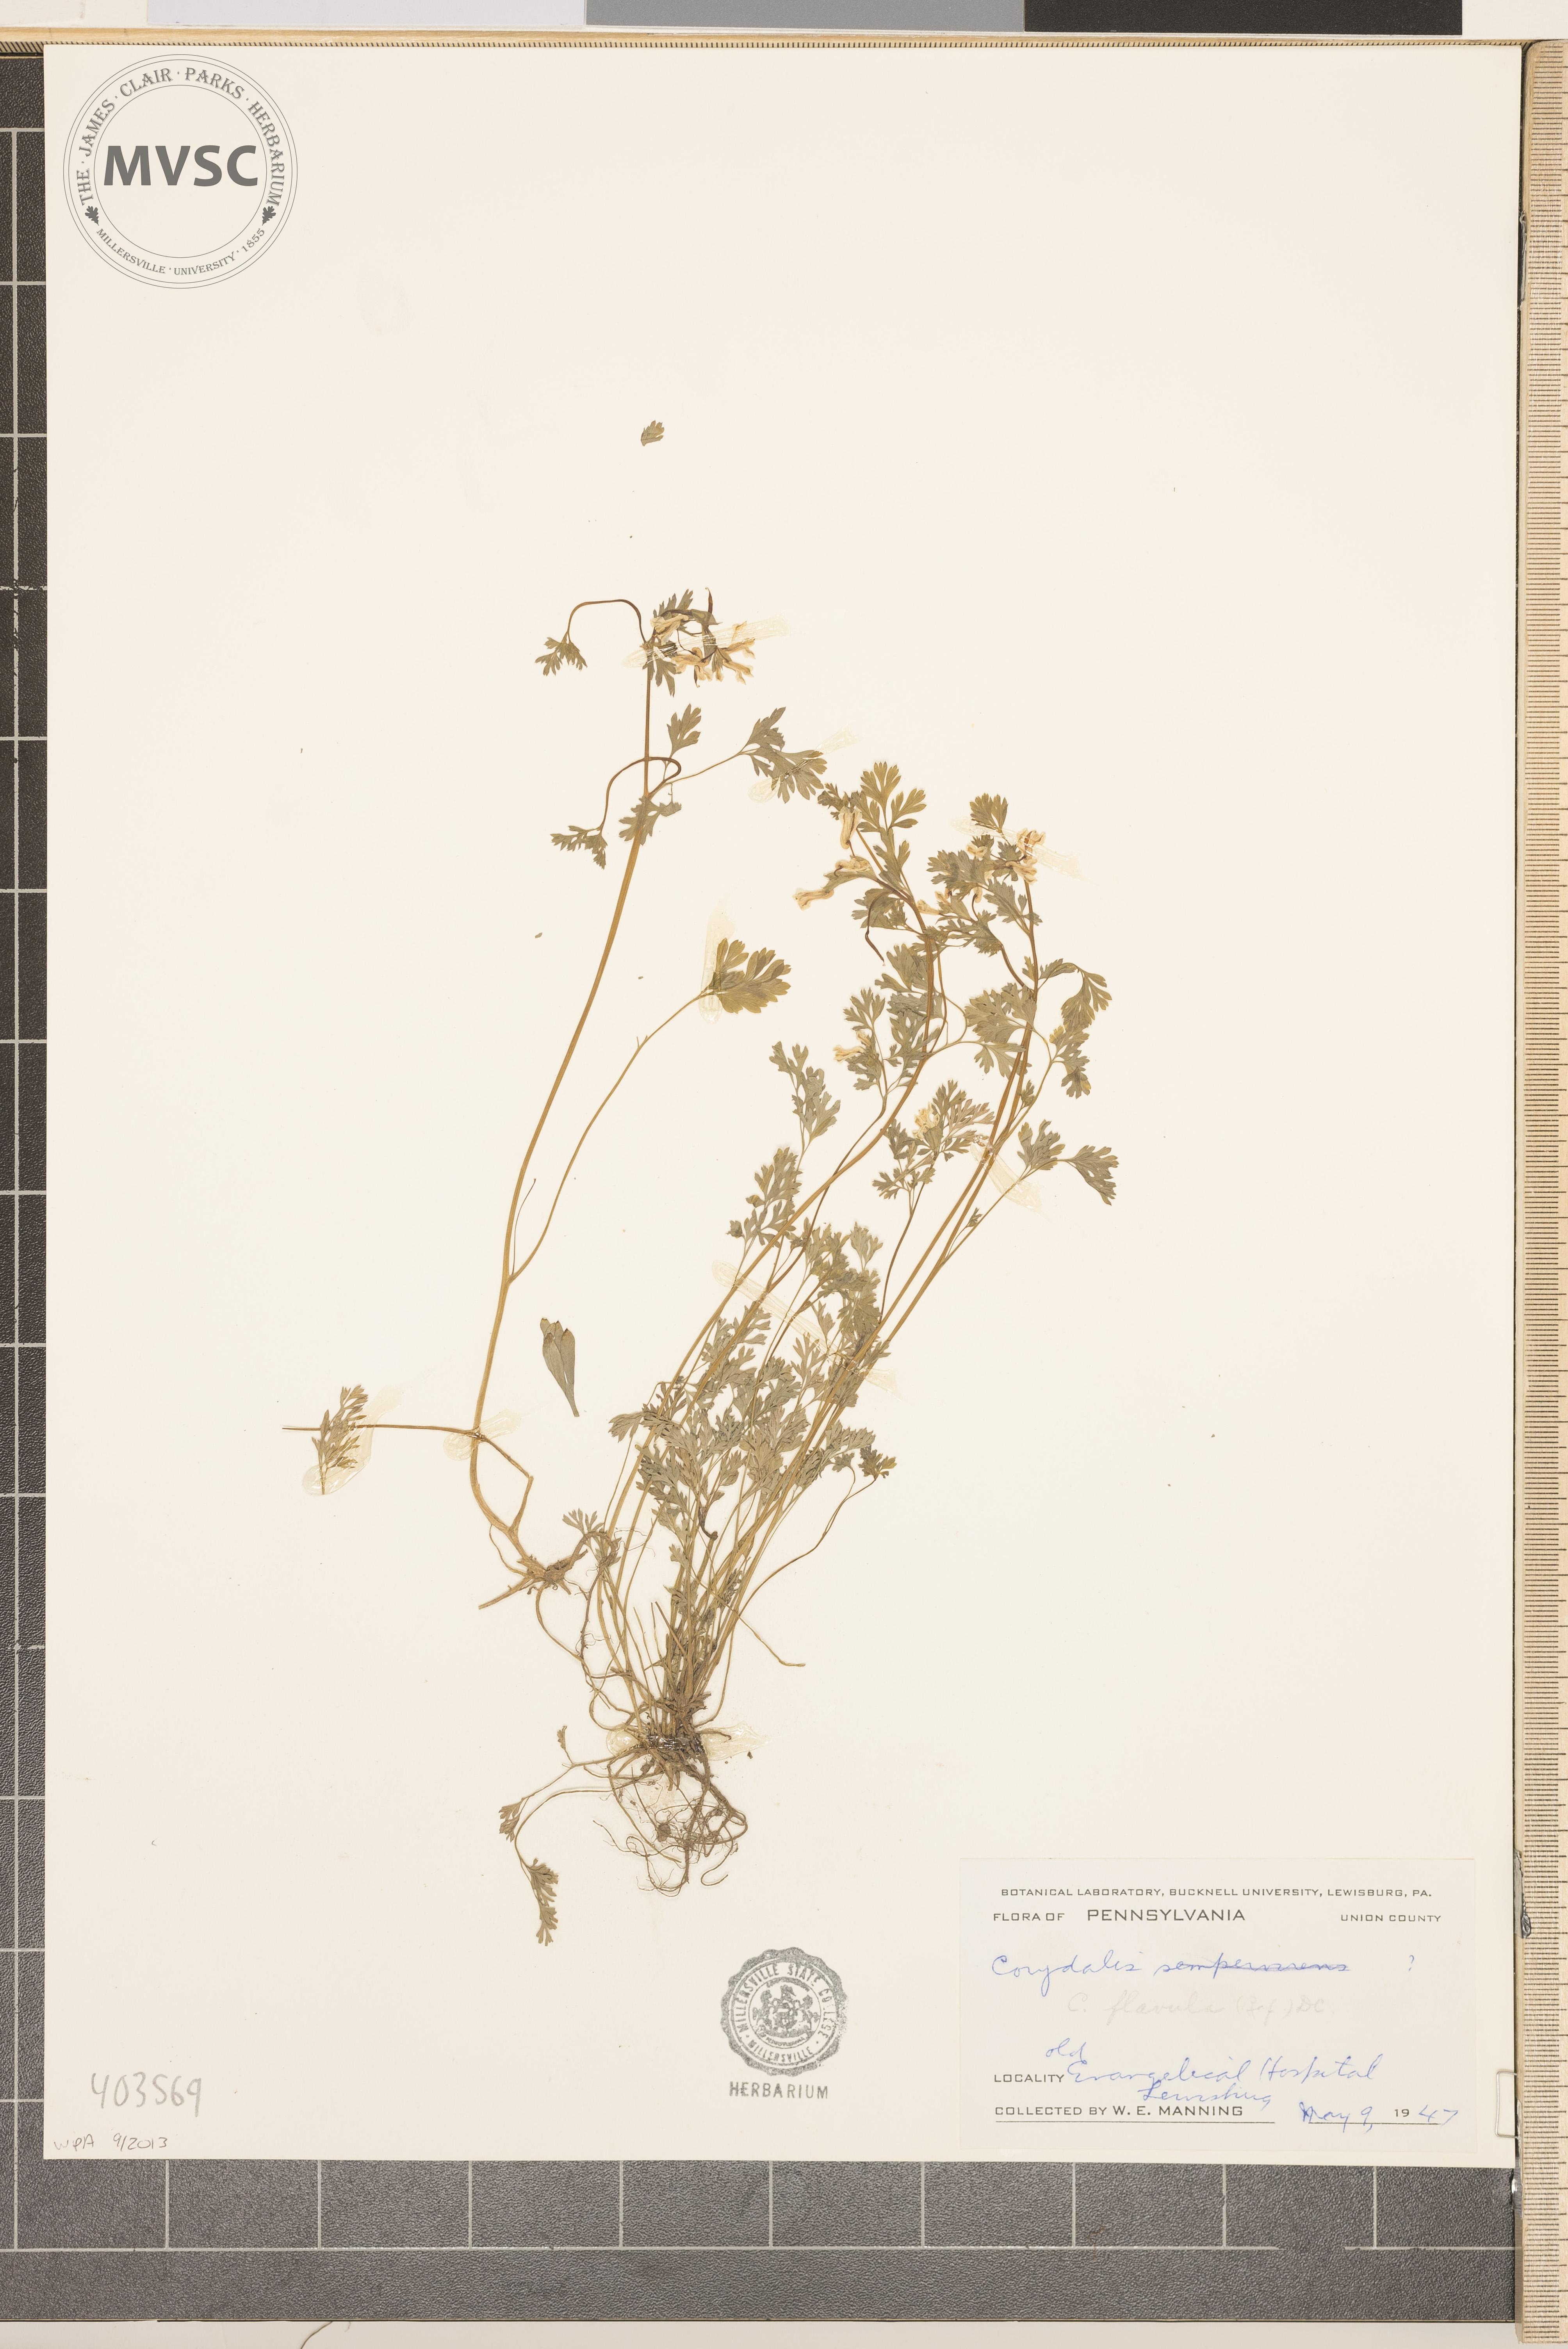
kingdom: Plantae
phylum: Tracheophyta
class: Magnoliopsida
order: Ranunculales
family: Papaveraceae
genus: Corydalis
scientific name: Corydalis flavula
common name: Yellow corydalis
